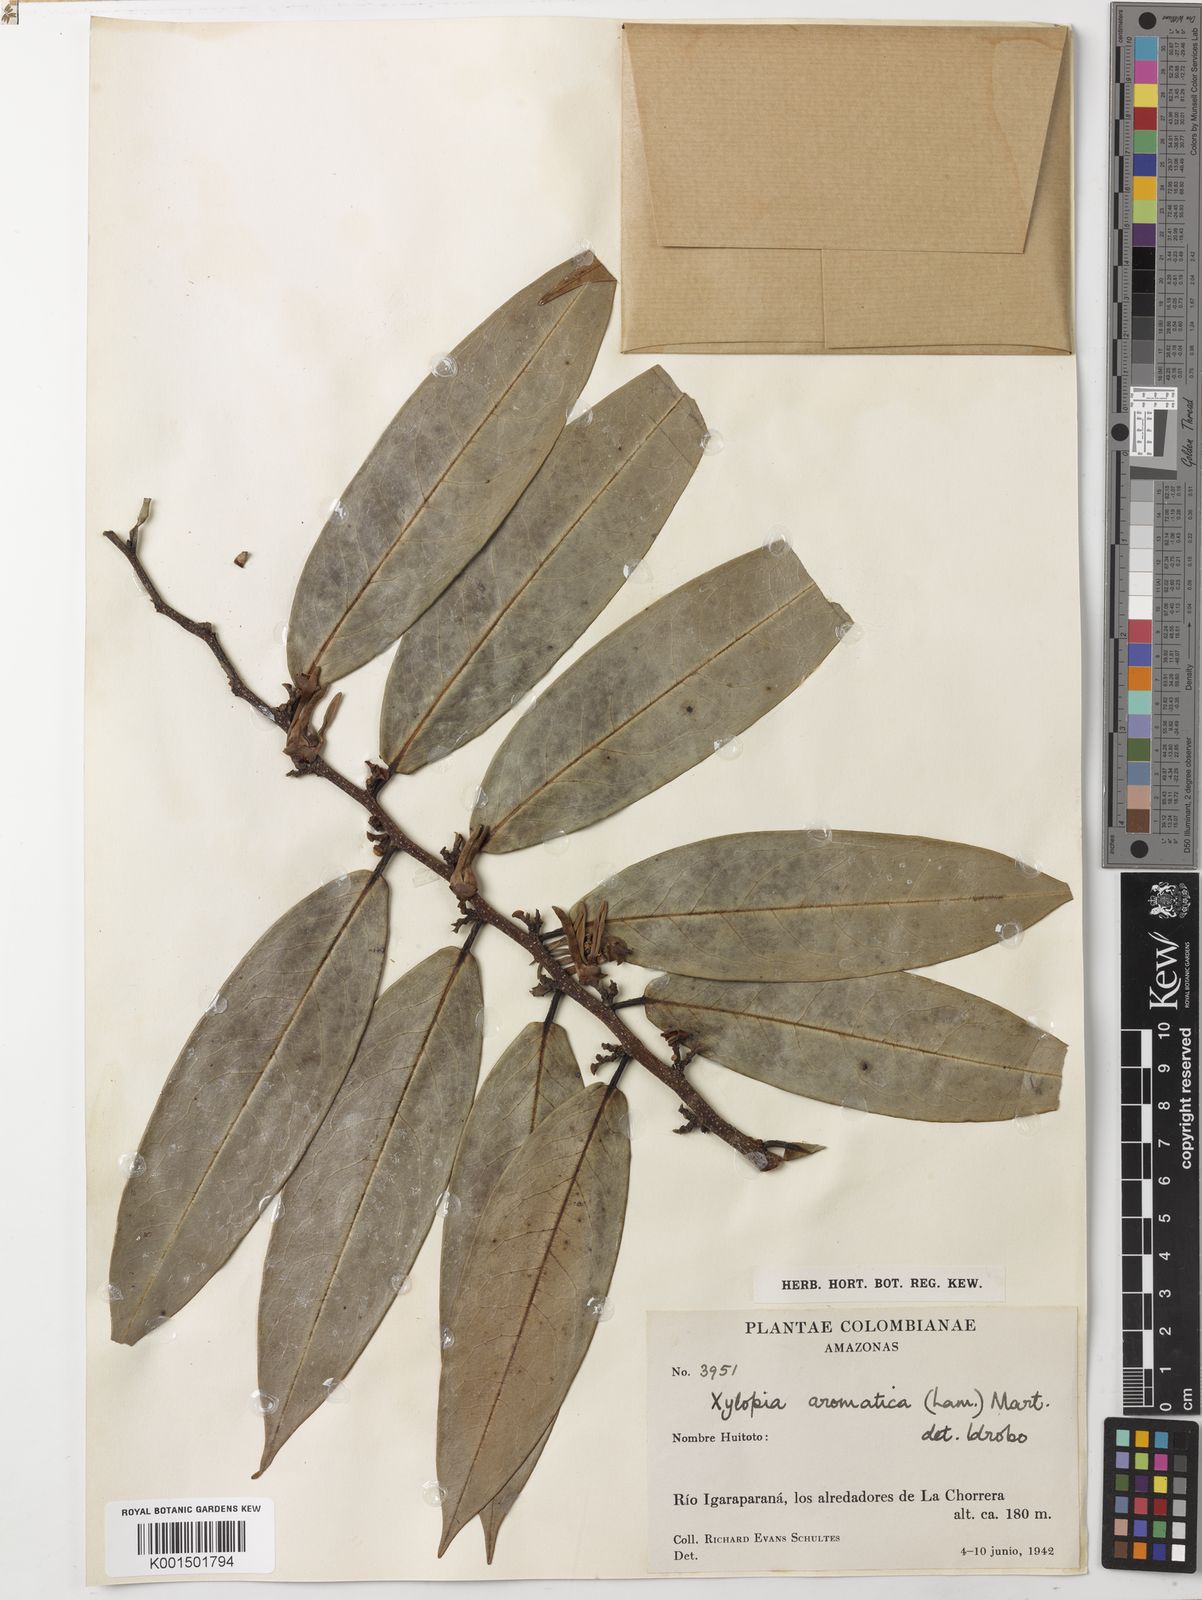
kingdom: Plantae
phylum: Tracheophyta
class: Magnoliopsida
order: Magnoliales
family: Annonaceae
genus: Xylopia
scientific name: Xylopia aromatica
